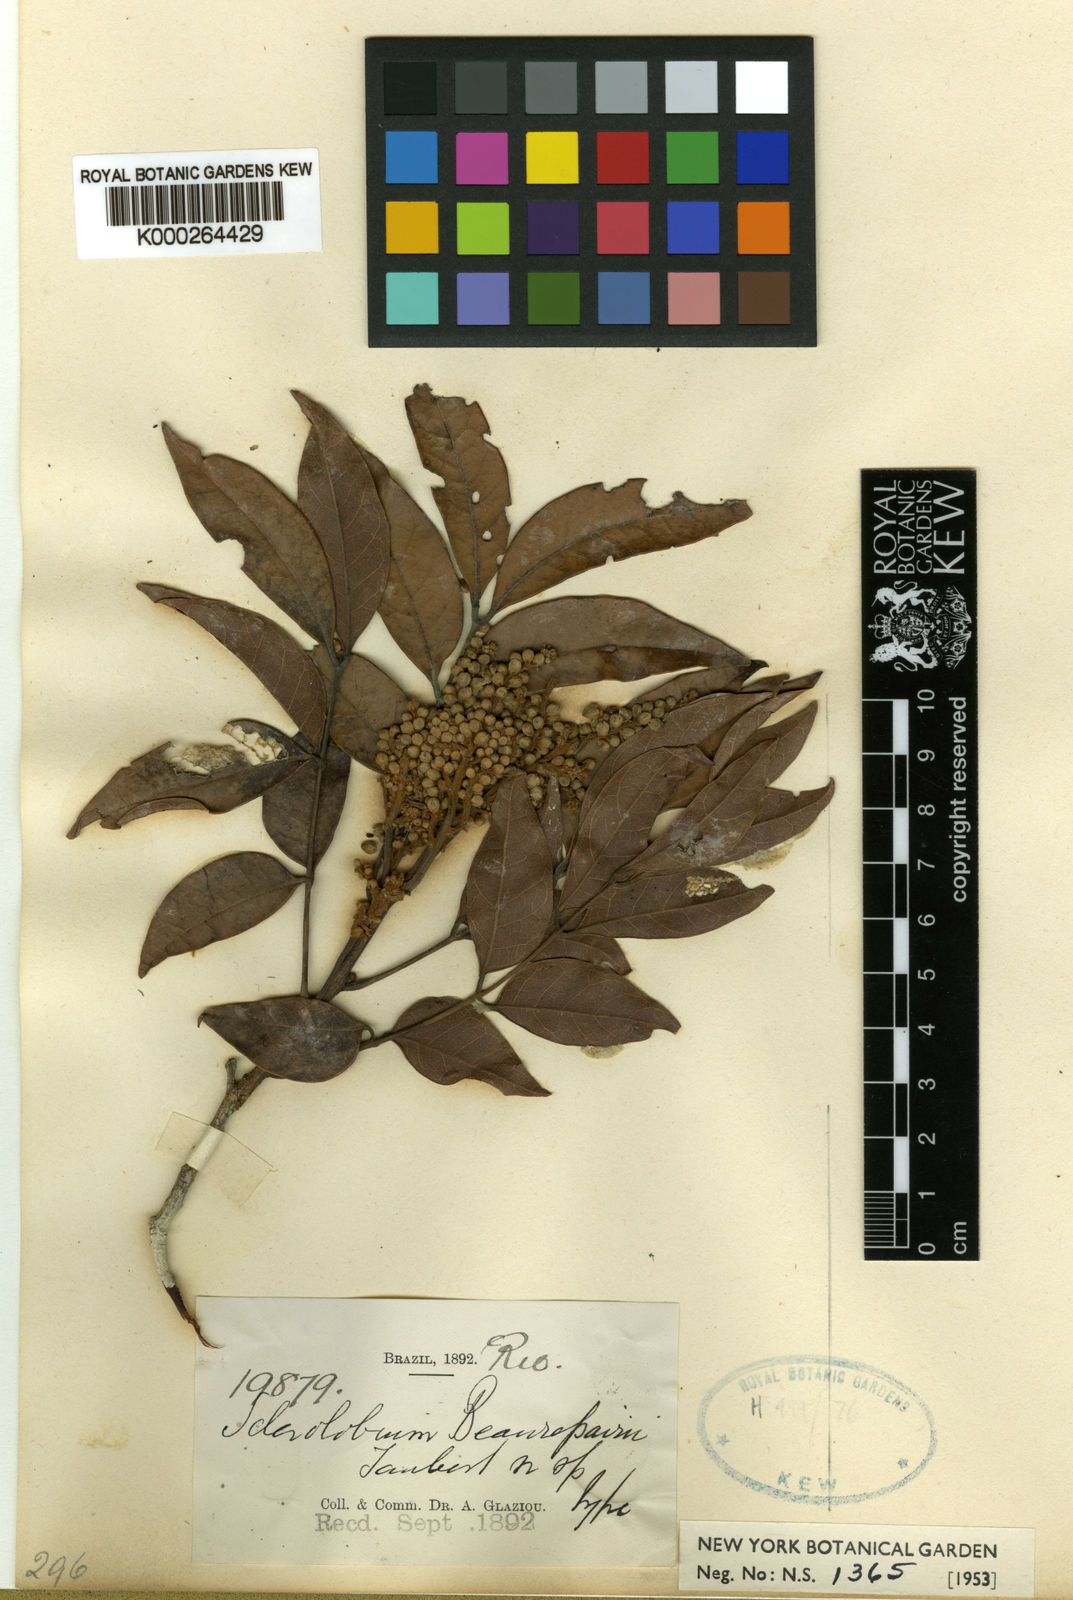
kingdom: Plantae
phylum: Tracheophyta
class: Magnoliopsida
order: Fabales
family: Fabaceae
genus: Tachigali
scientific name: Tachigali
